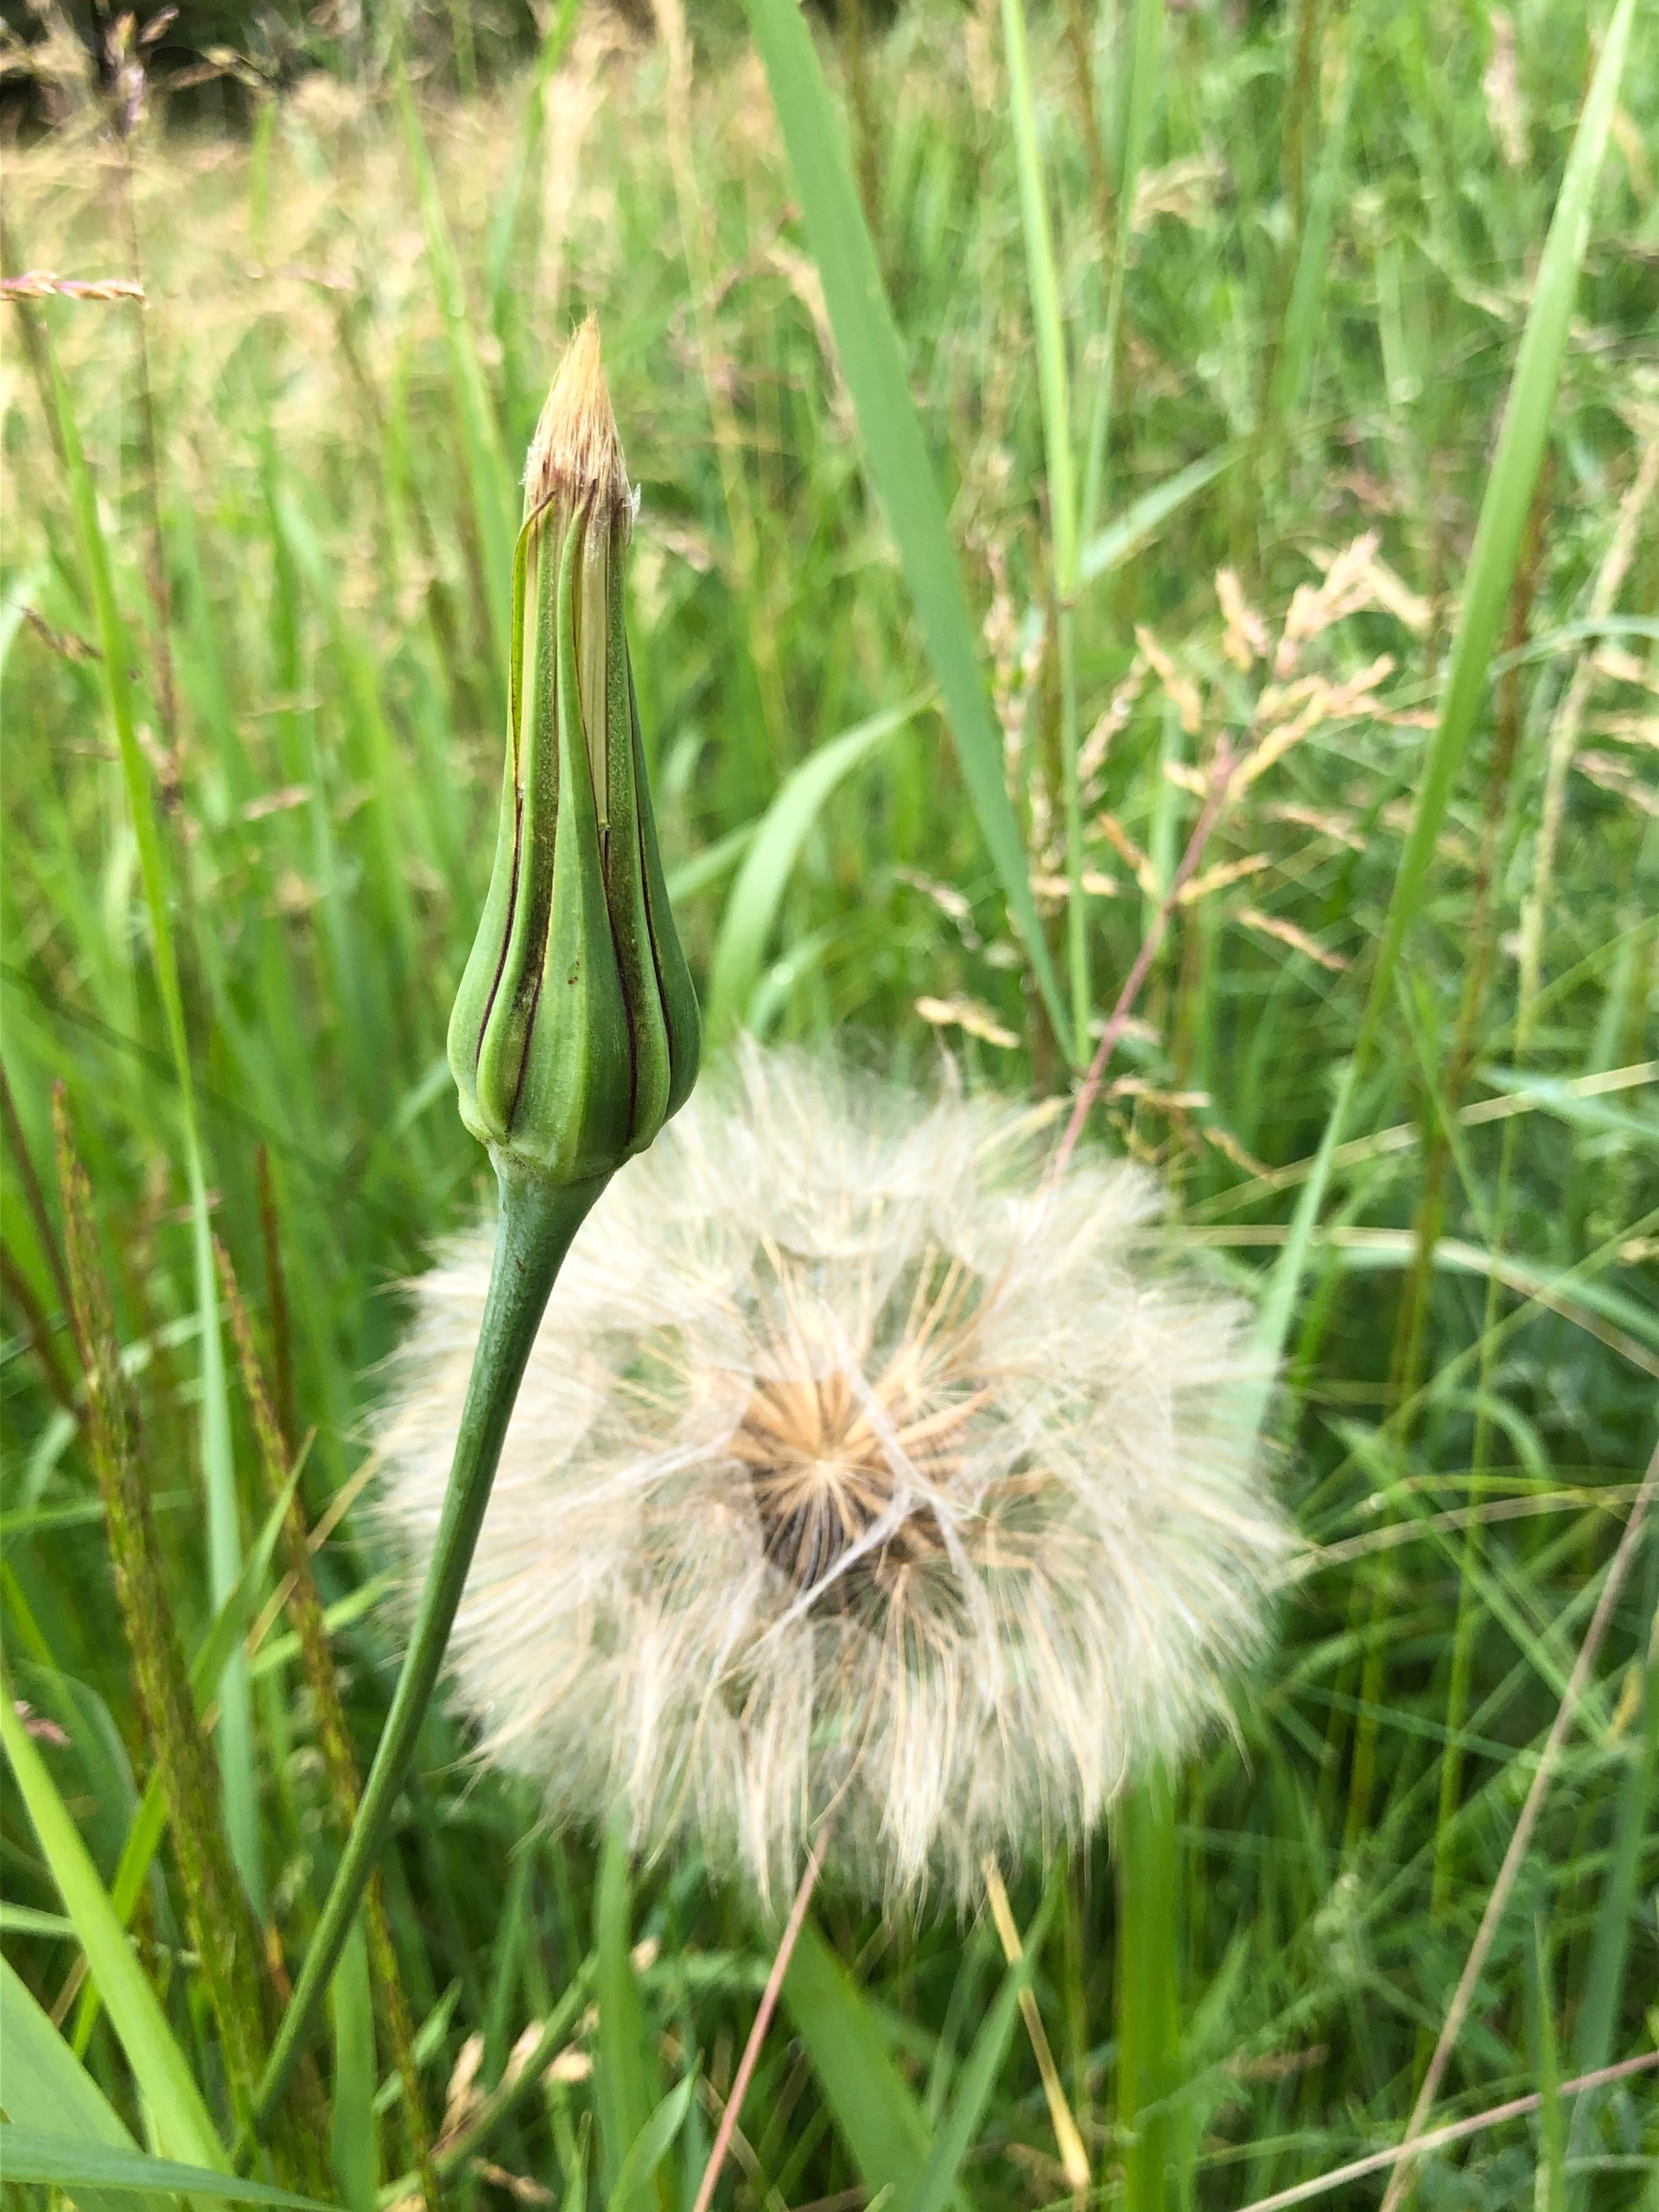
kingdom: Plantae
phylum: Tracheophyta
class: Magnoliopsida
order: Asterales
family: Asteraceae
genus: Tragopogon
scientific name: Tragopogon pratensis
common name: Gedeskæg
